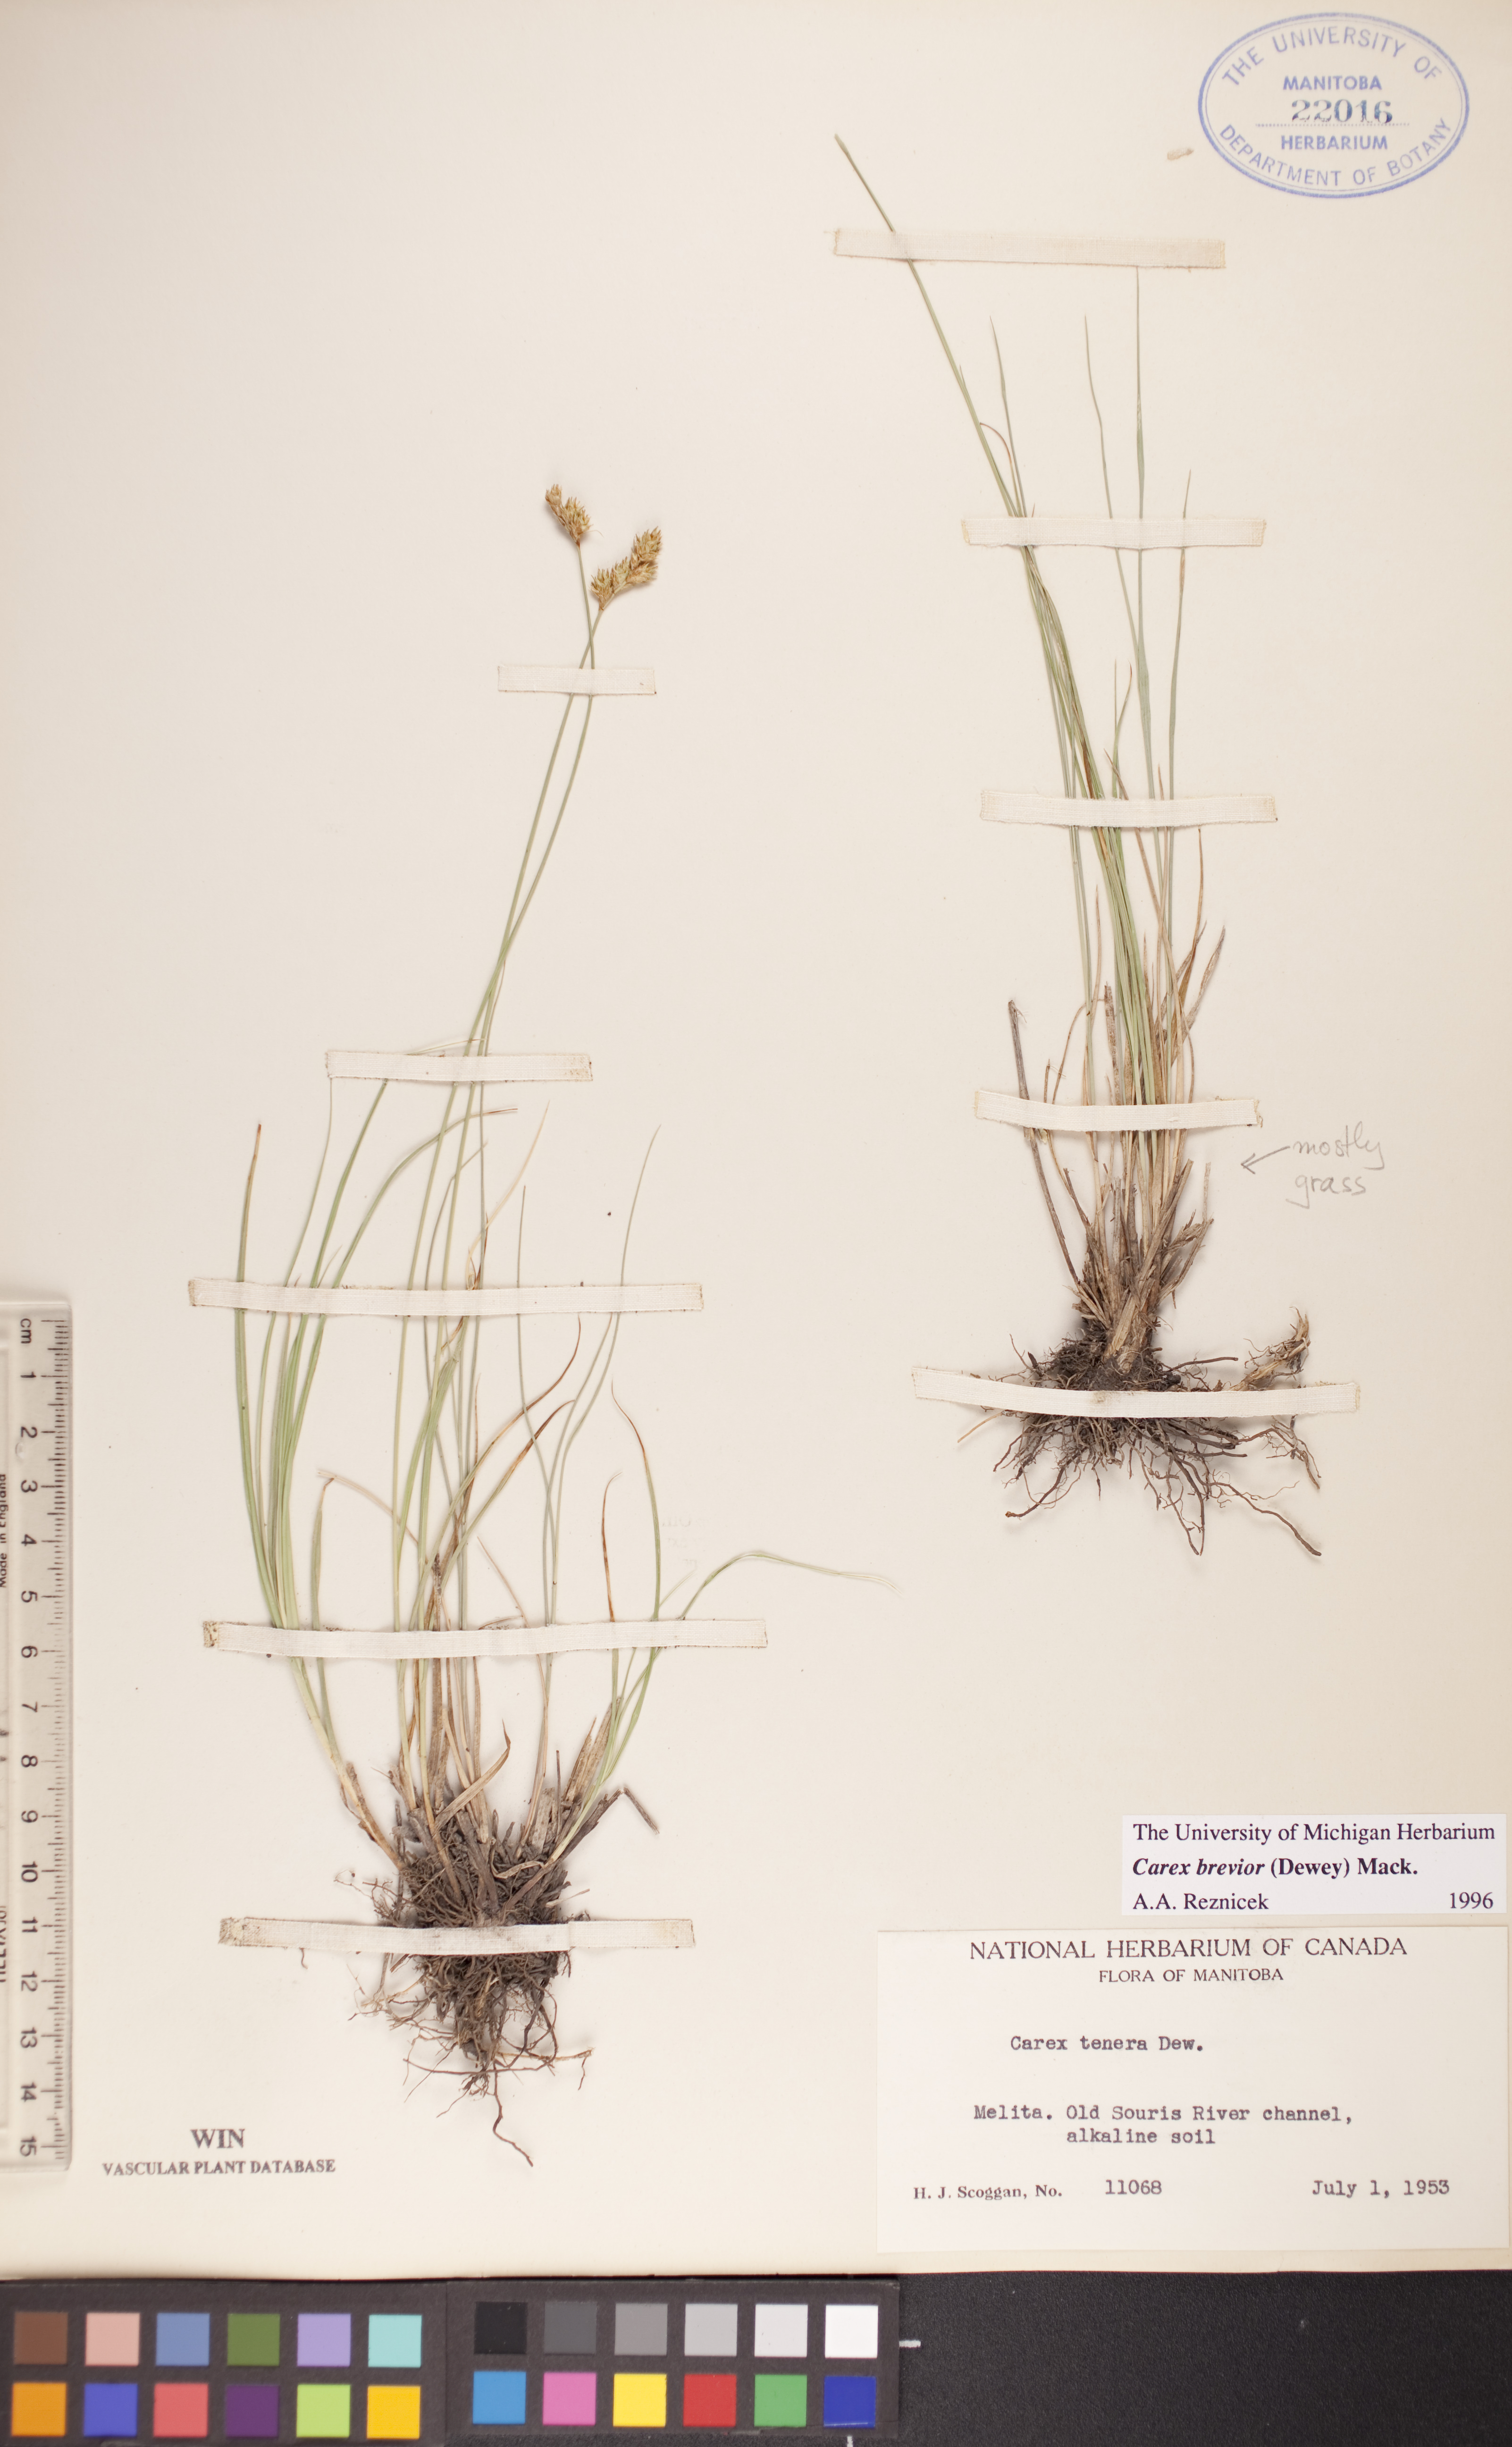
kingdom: Plantae
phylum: Tracheophyta
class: Liliopsida
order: Poales
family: Cyperaceae
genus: Carex
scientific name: Carex brevior
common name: Brevior sedge
